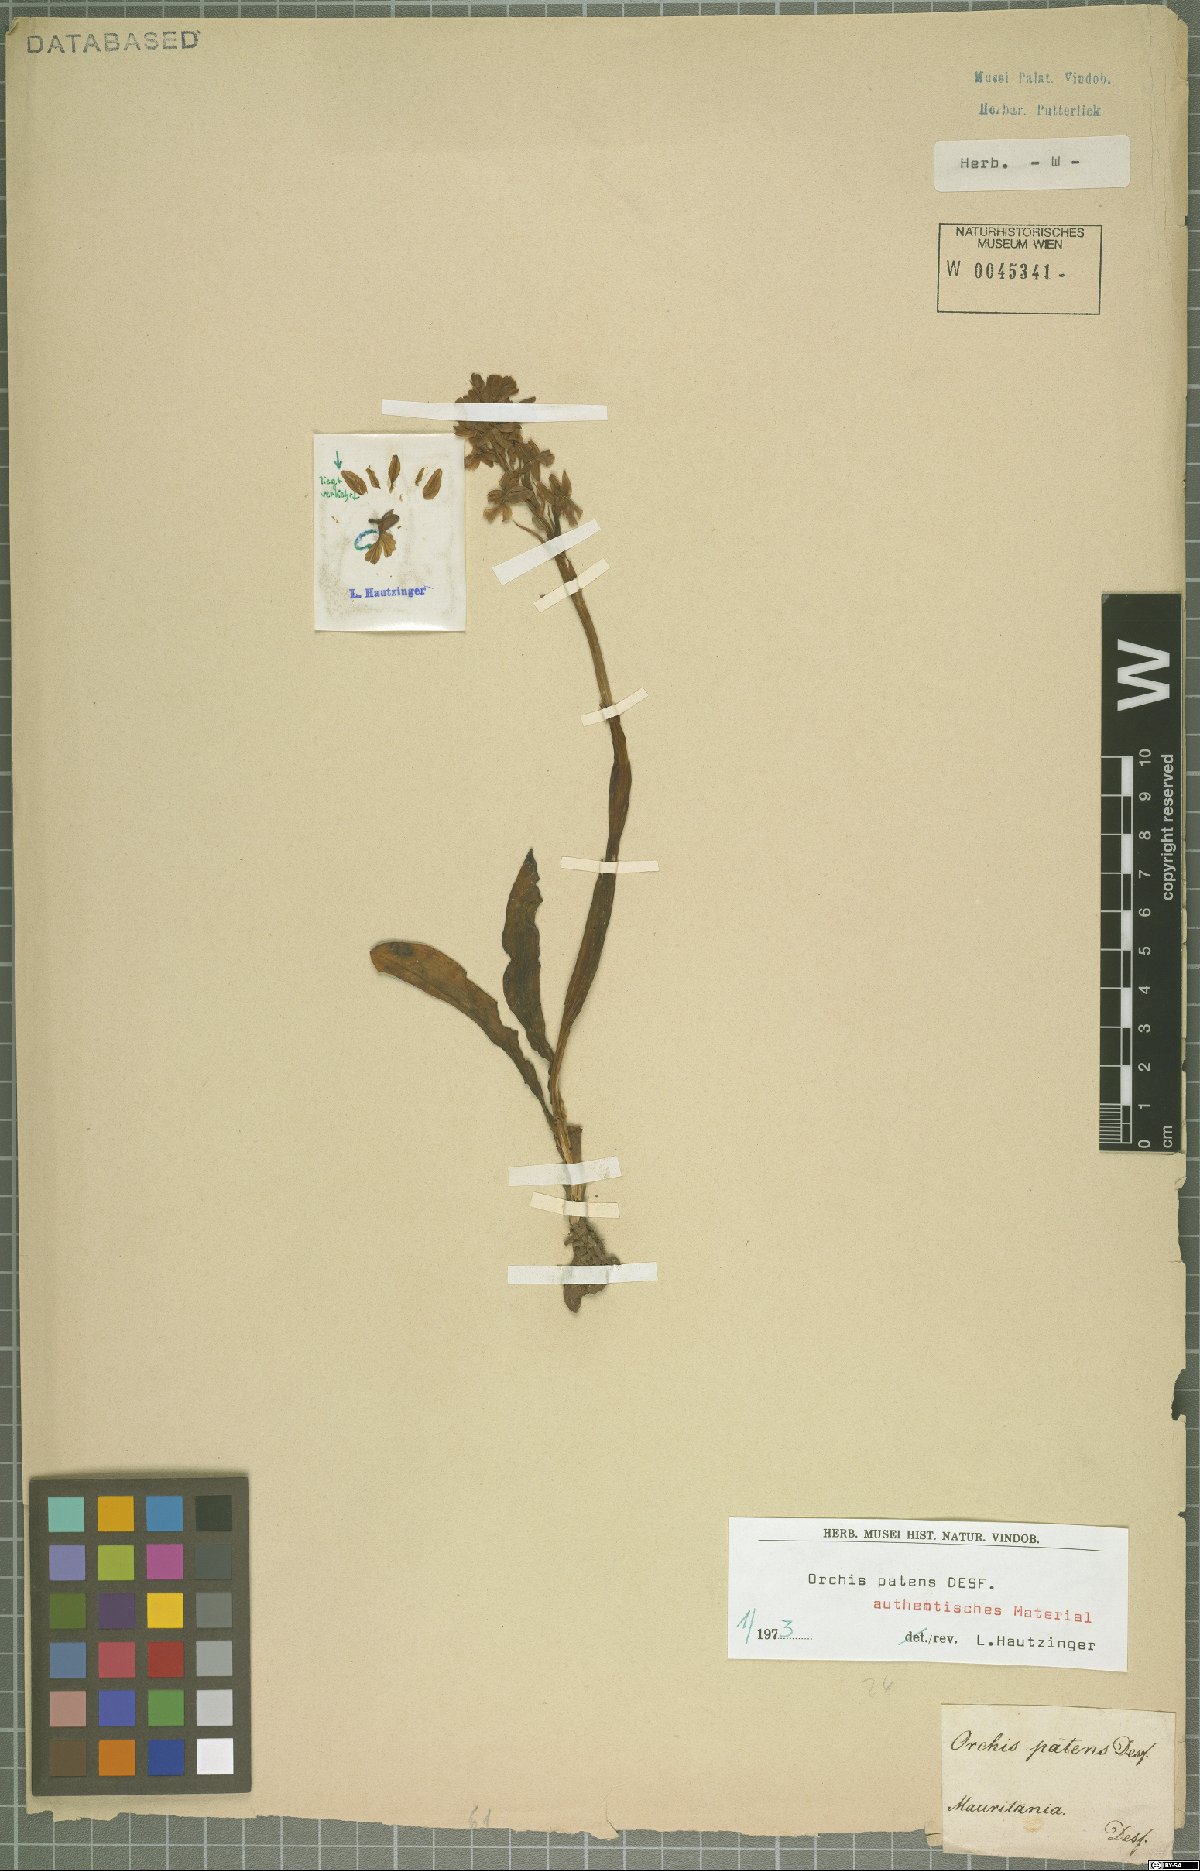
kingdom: Plantae
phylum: Tracheophyta
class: Liliopsida
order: Asparagales
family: Orchidaceae
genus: Orchis
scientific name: Orchis patens
